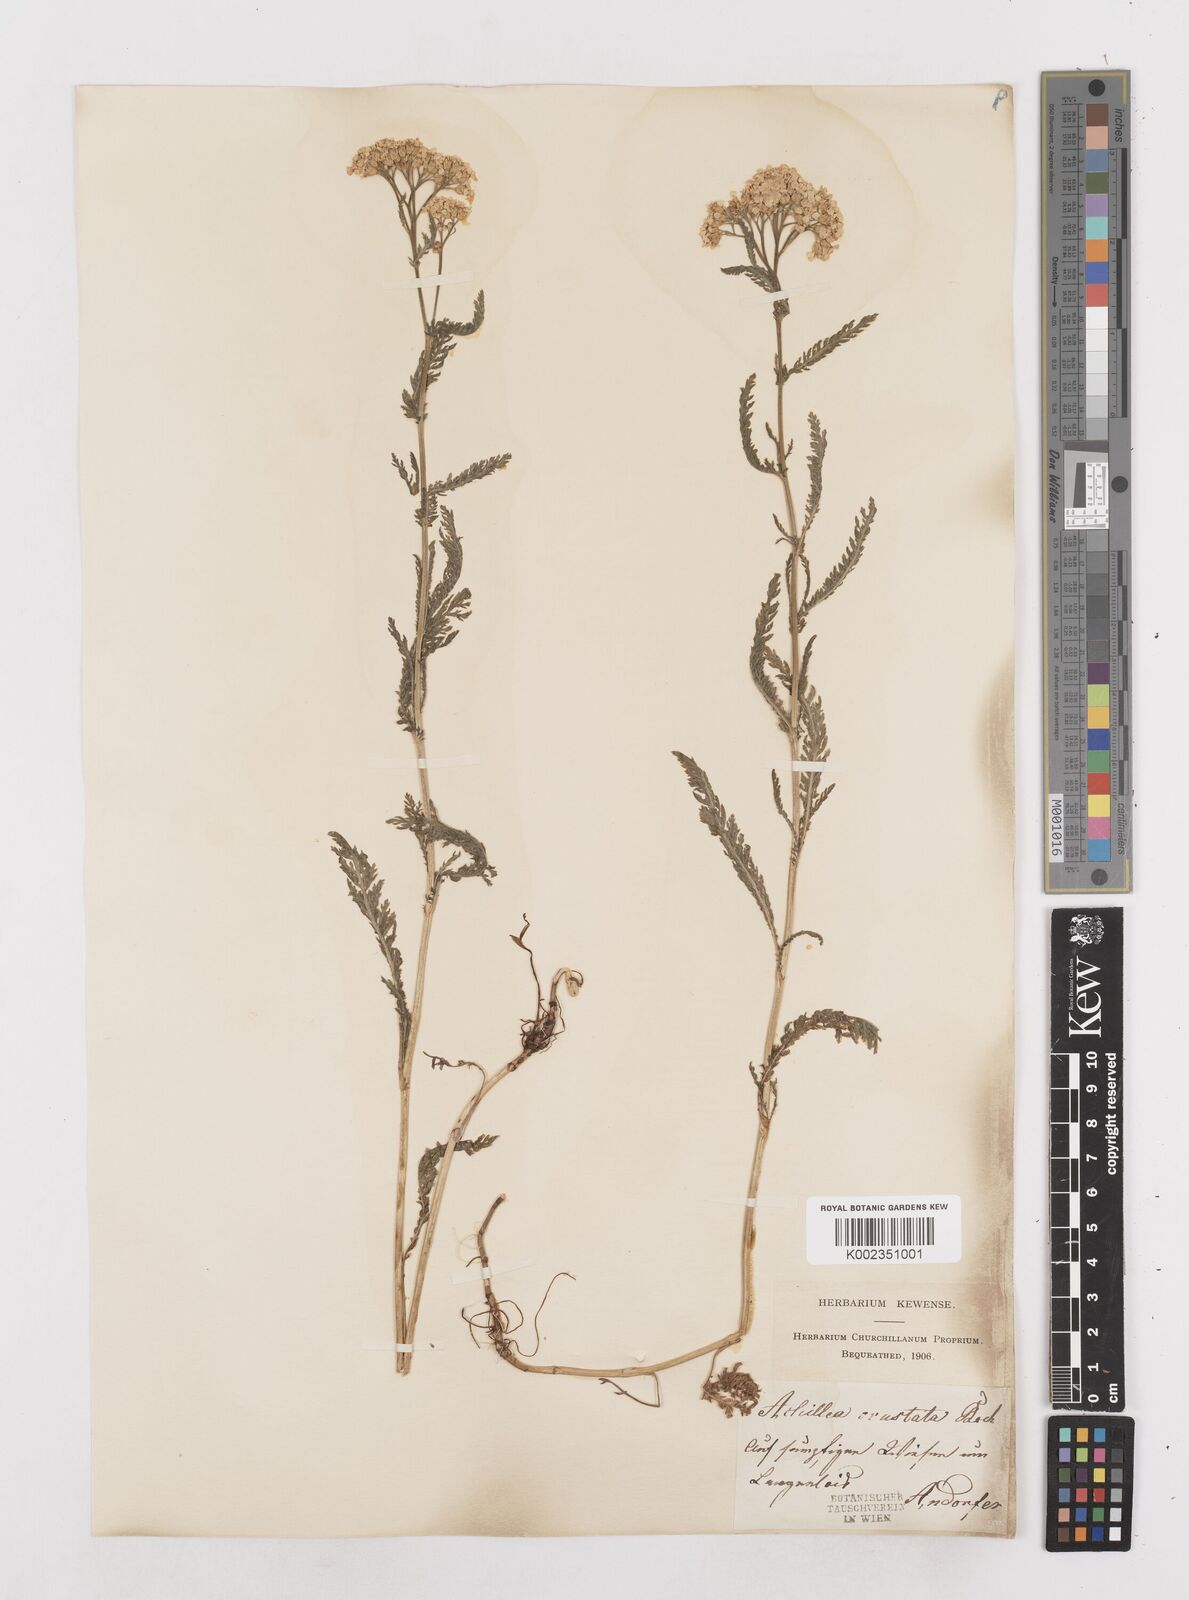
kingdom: Plantae
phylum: Tracheophyta
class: Magnoliopsida
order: Asterales
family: Asteraceae
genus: Achillea
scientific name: Achillea millefolium
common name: Yarrow
